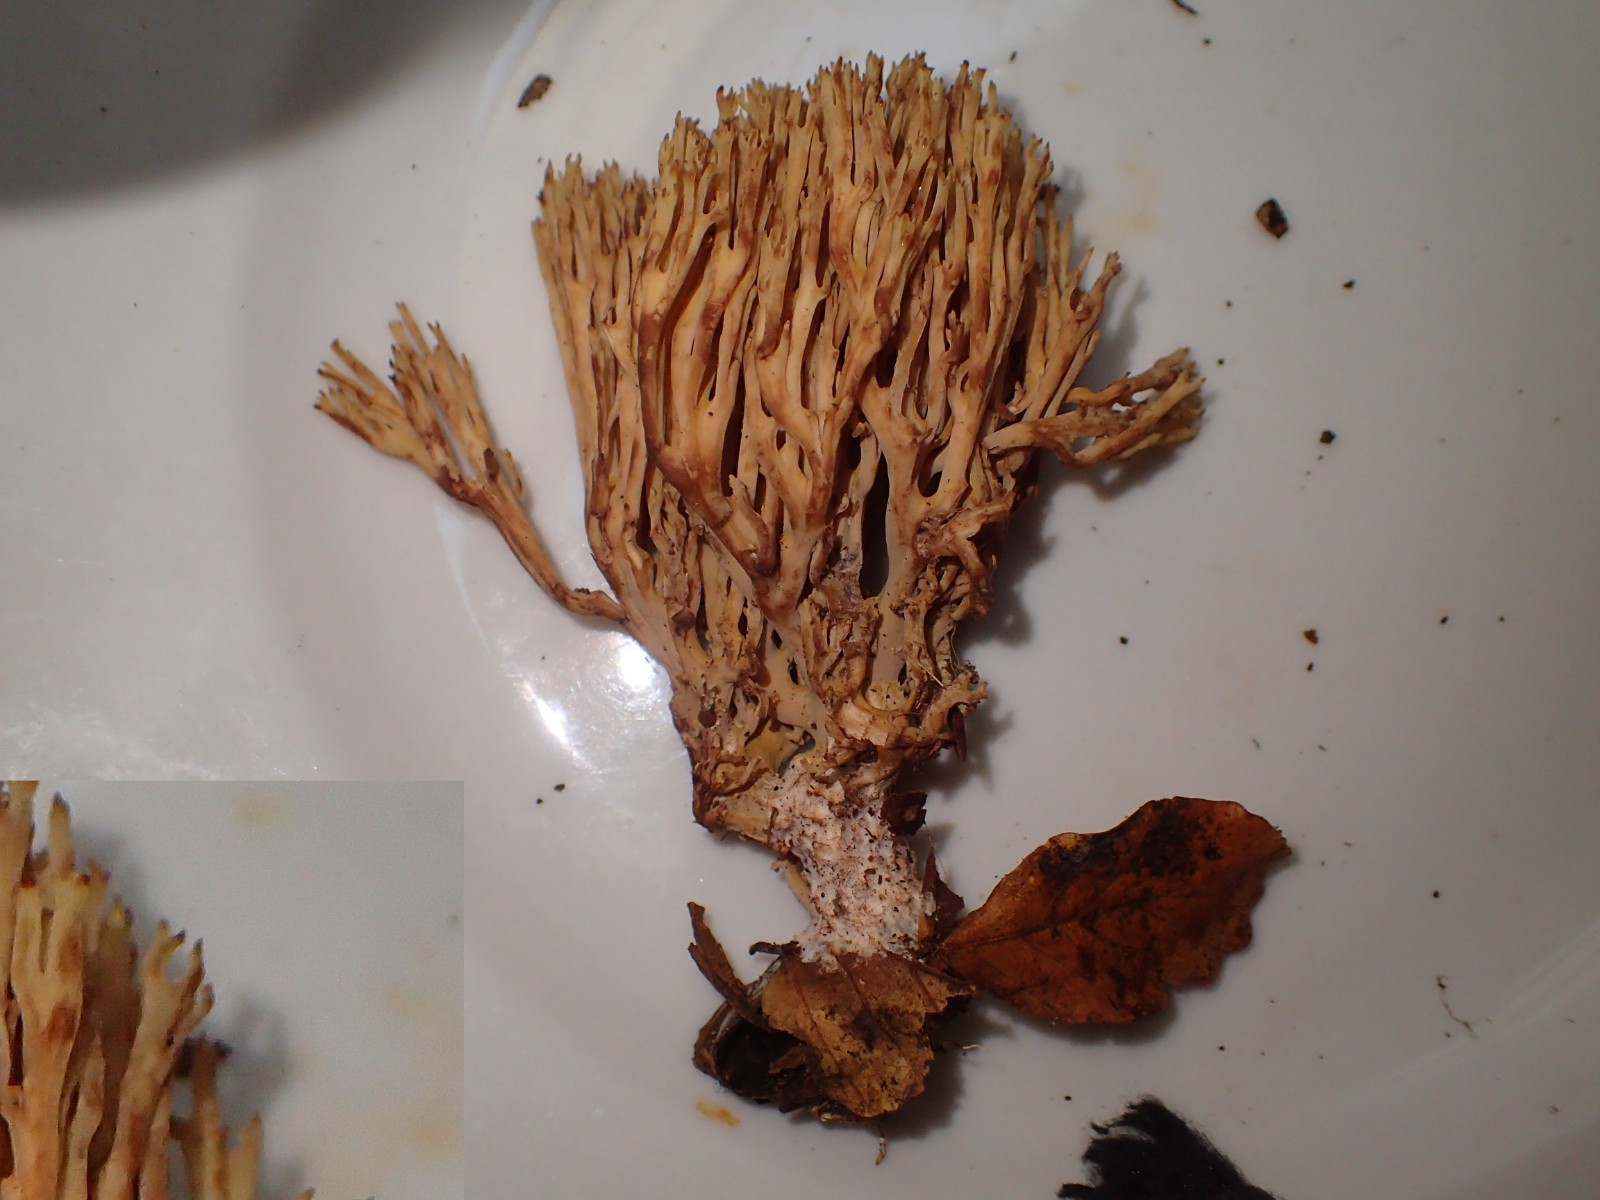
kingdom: Fungi
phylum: Basidiomycota
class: Agaricomycetes
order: Gomphales
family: Gomphaceae
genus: Ramaria
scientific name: Ramaria stricta
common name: rank koralsvamp
